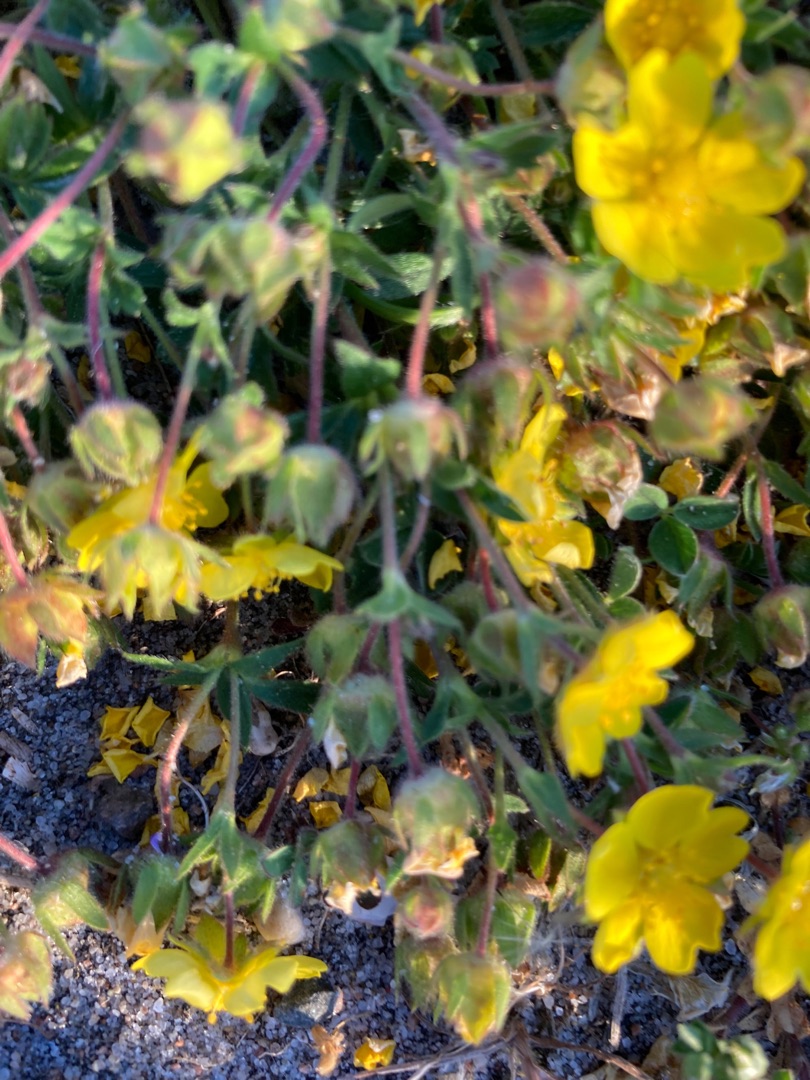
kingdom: Plantae
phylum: Tracheophyta
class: Magnoliopsida
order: Rosales
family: Rosaceae
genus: Potentilla
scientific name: Potentilla verna
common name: Vår-potentil
